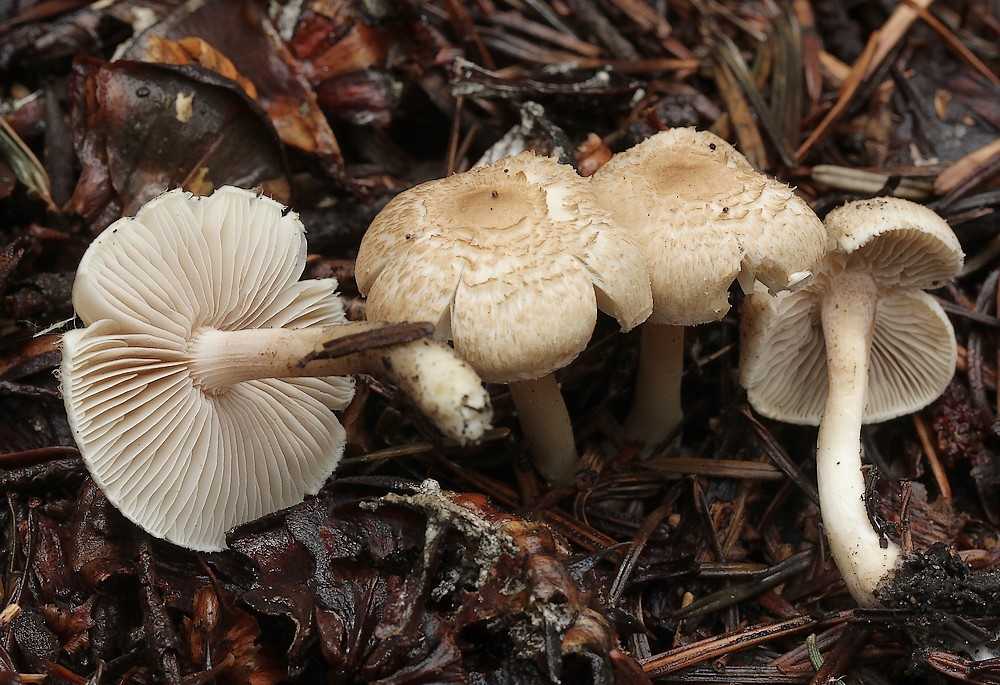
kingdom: Fungi
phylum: Basidiomycota
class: Agaricomycetes
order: Agaricales
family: Inocybaceae
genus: Inocybe
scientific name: Inocybe
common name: trævlhat
